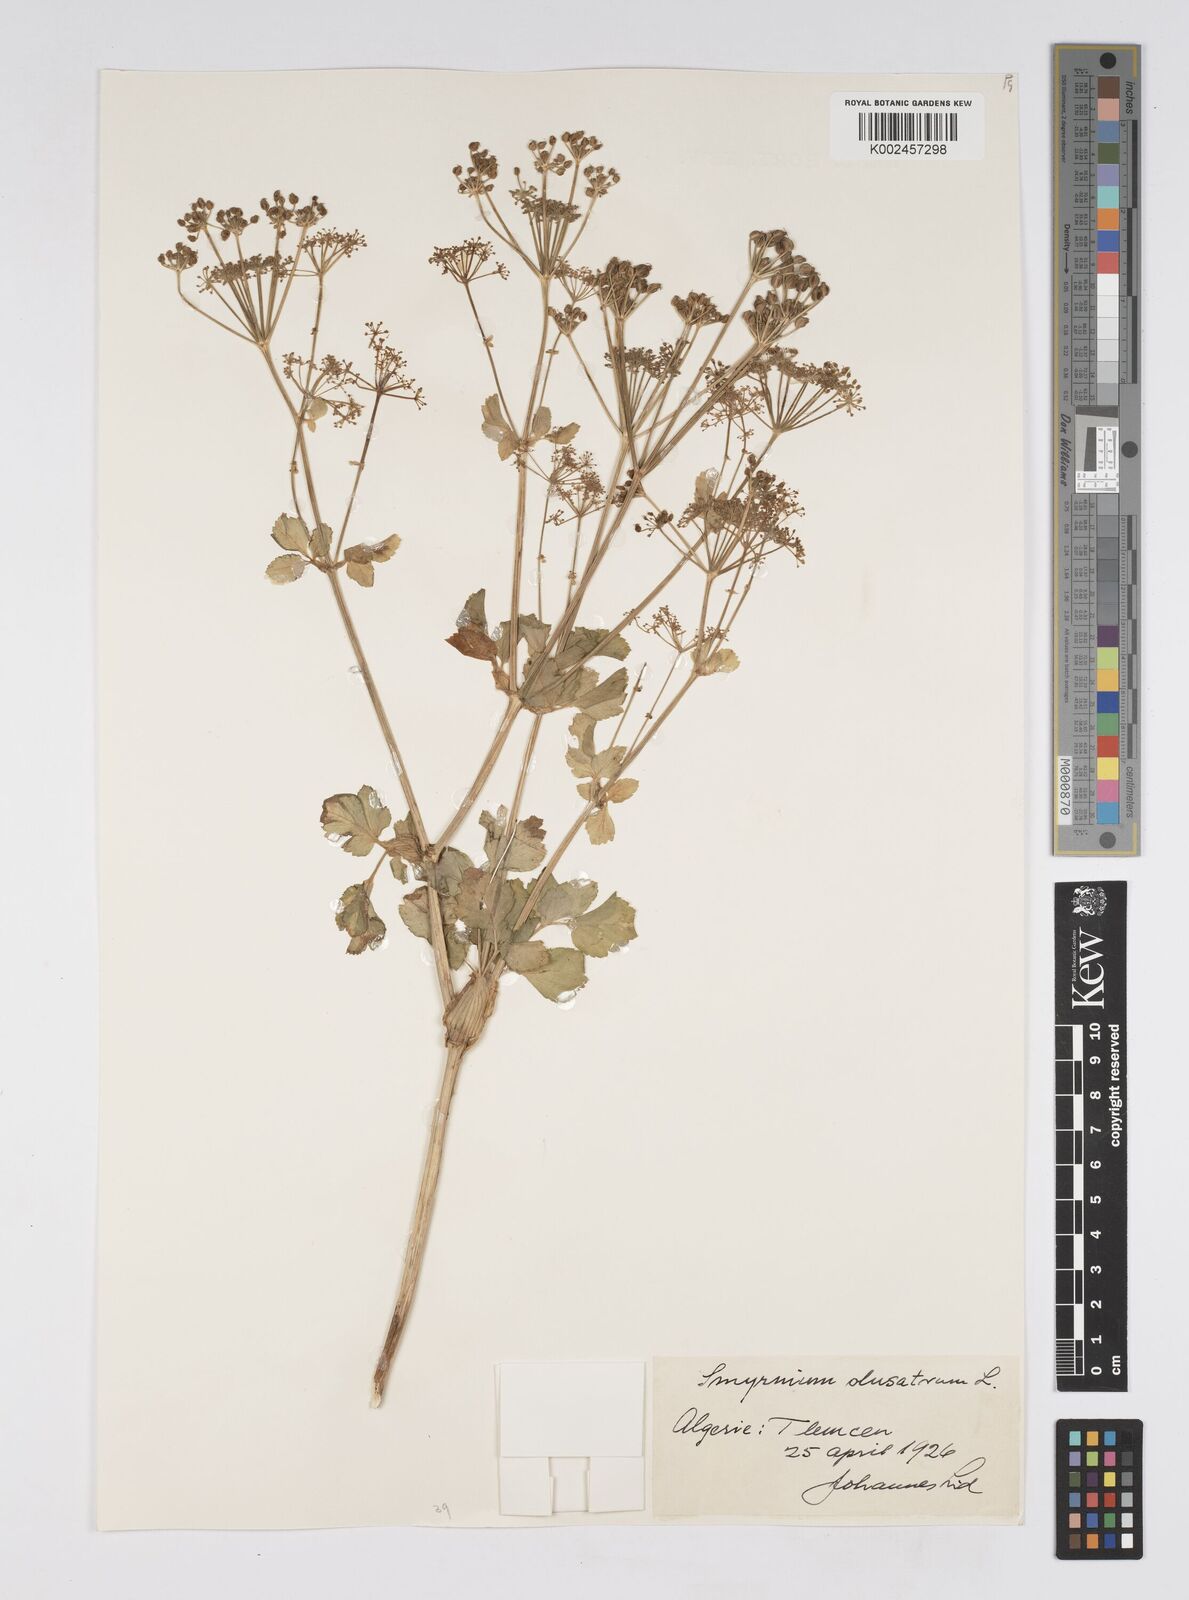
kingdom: Plantae
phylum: Tracheophyta
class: Magnoliopsida
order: Apiales
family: Apiaceae
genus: Smyrnium
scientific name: Smyrnium olusatrum
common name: Alexanders
